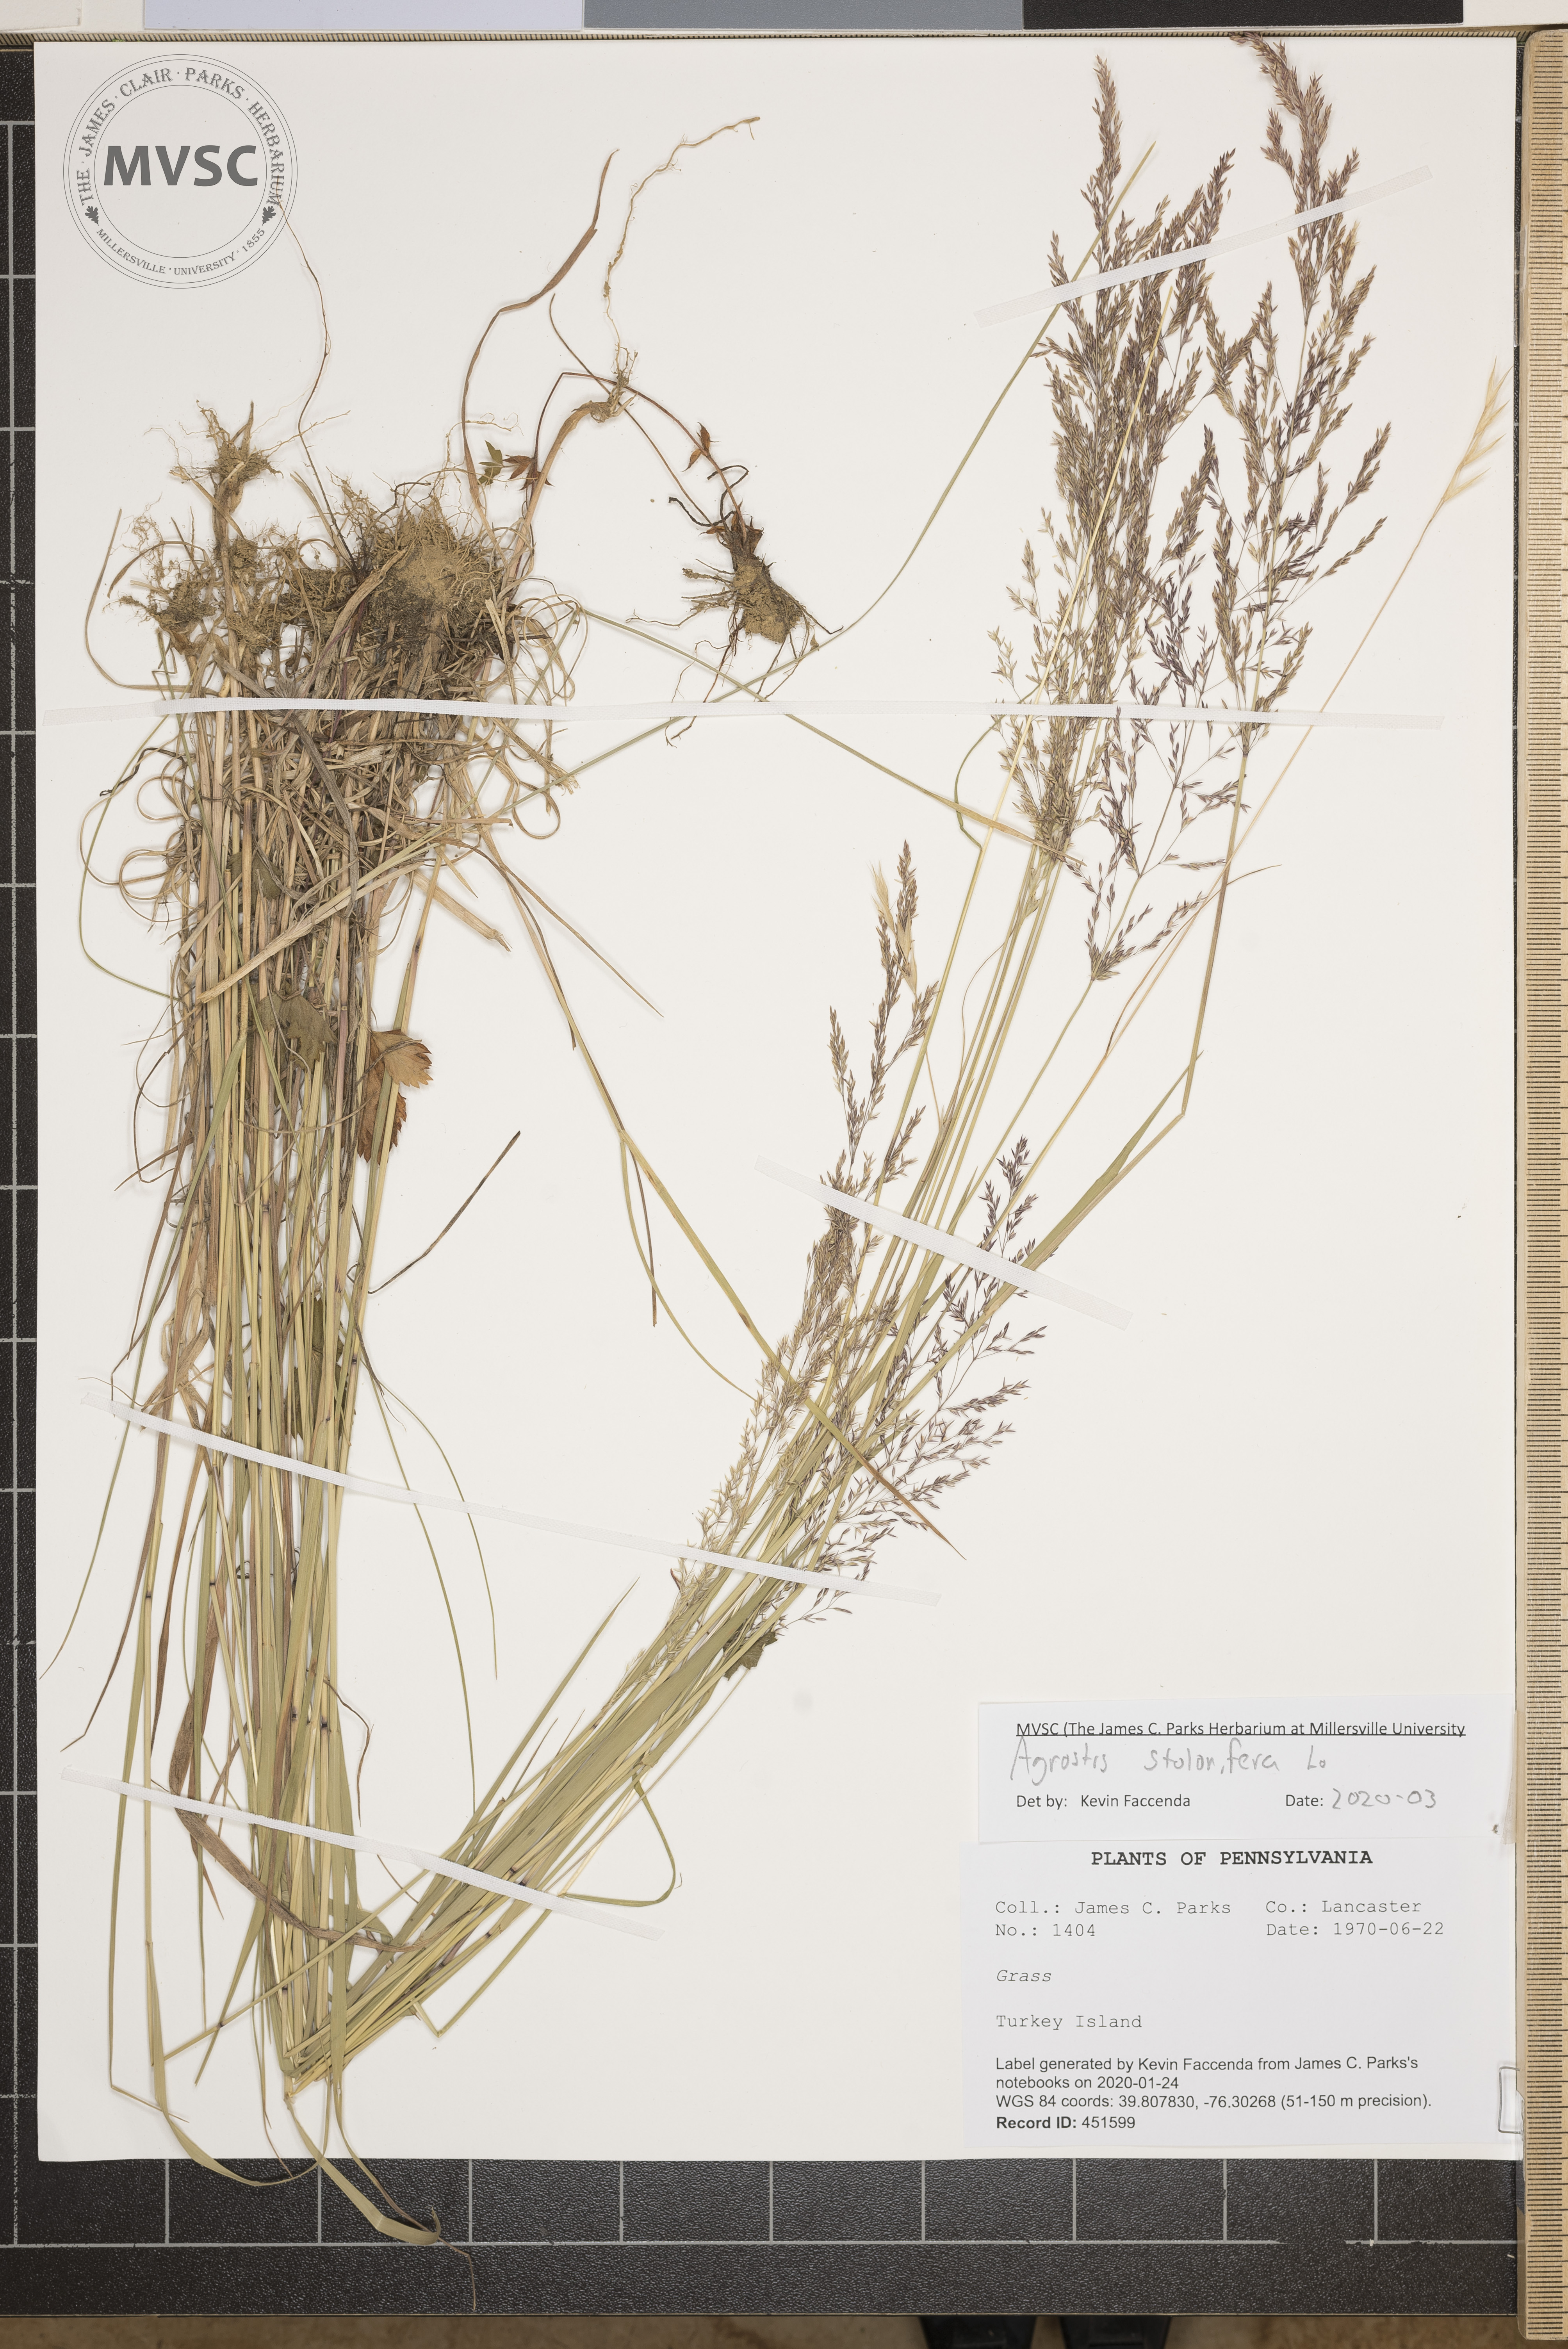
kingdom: Plantae
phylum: Tracheophyta
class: Liliopsida
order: Poales
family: Poaceae
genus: Agrostis
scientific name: Agrostis stolonifera
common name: Creeping bentgrass
